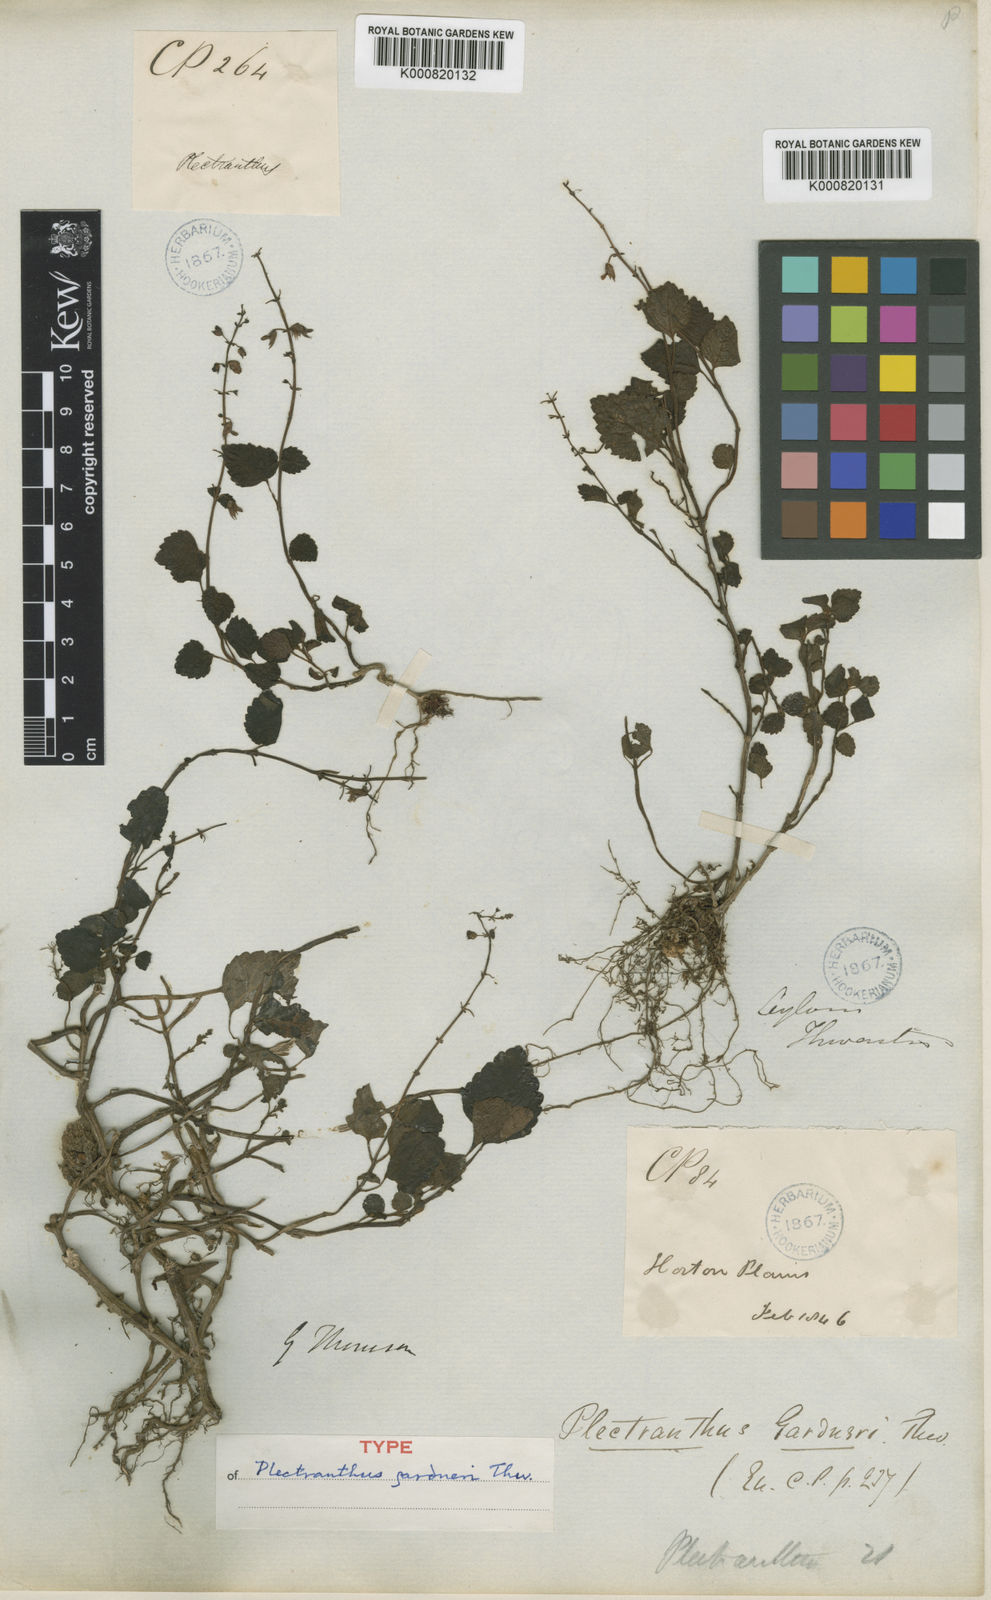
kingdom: Plantae
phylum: Tracheophyta
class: Magnoliopsida
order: Lamiales
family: Lamiaceae
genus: Plectranthus
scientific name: Plectranthus gardneri
